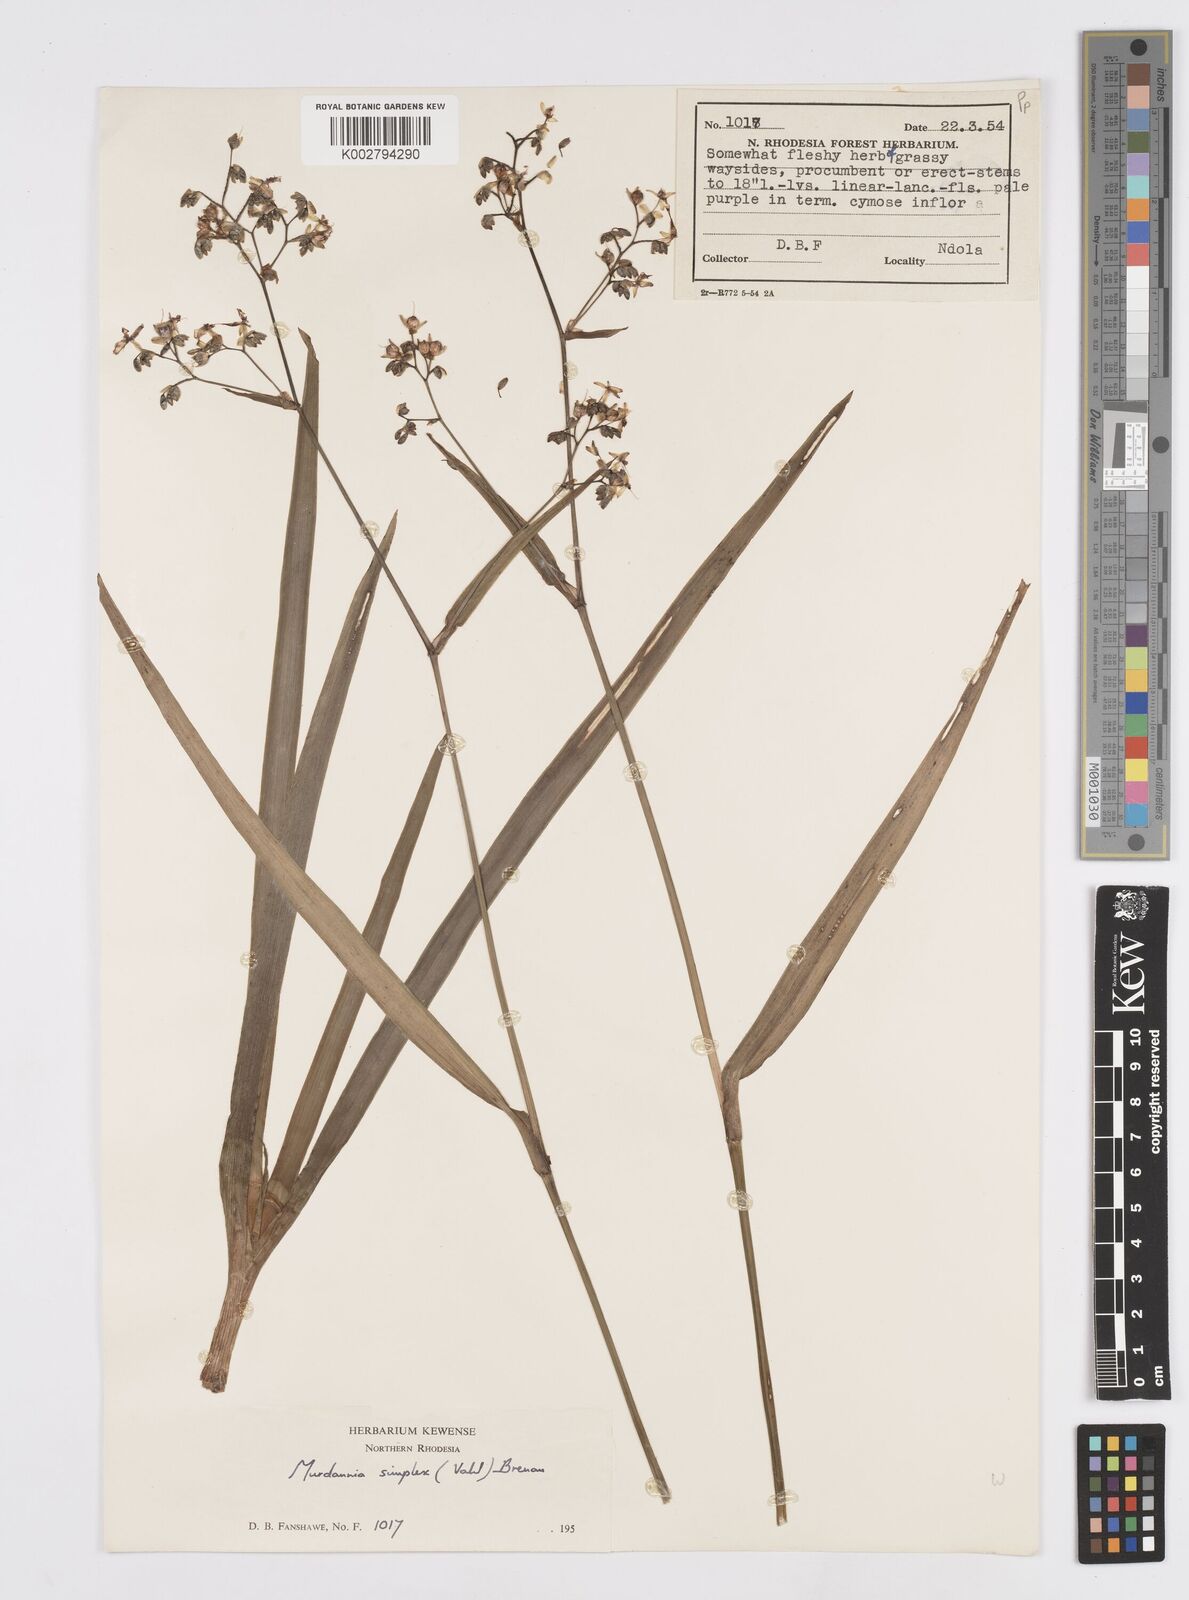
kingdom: Plantae
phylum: Tracheophyta
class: Liliopsida
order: Commelinales
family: Commelinaceae
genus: Murdannia
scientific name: Murdannia simplex
